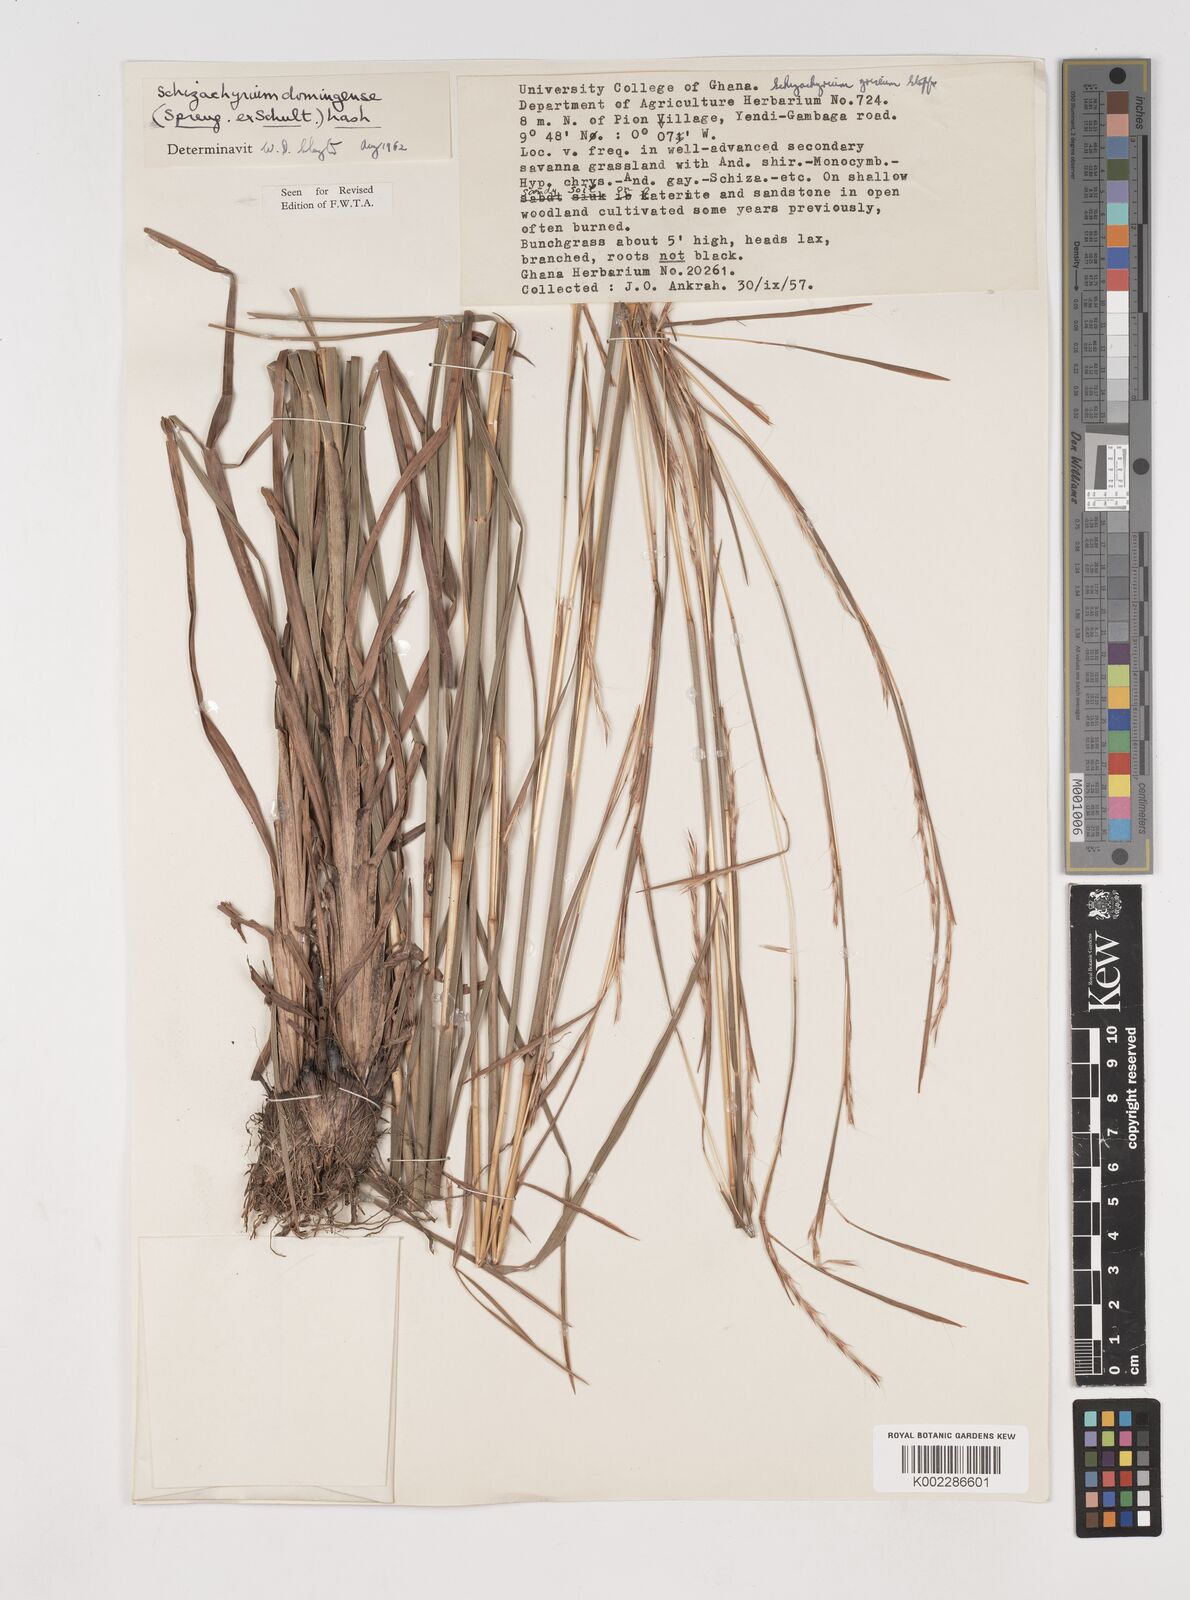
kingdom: Plantae
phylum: Tracheophyta
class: Liliopsida
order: Poales
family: Poaceae
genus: Schizachyrium
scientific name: Schizachyrium sanguineum
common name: Crimson bluestem
